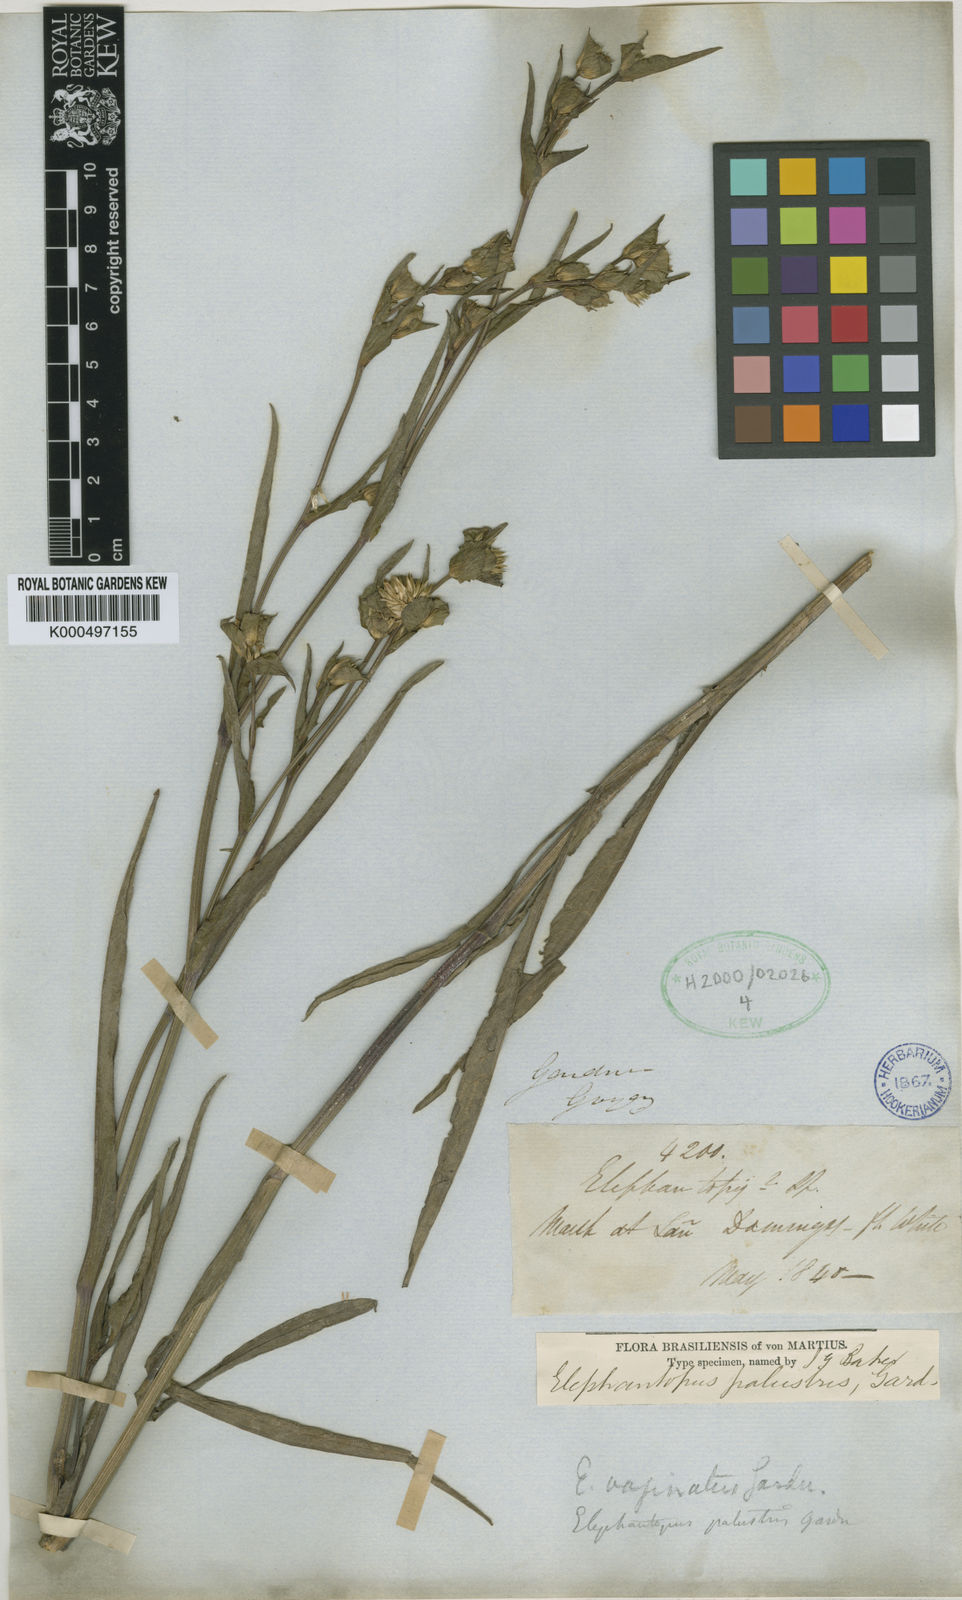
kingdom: Plantae
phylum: Tracheophyta
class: Magnoliopsida
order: Asterales
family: Asteraceae
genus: Elephantopus
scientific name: Elephantopus palustris
